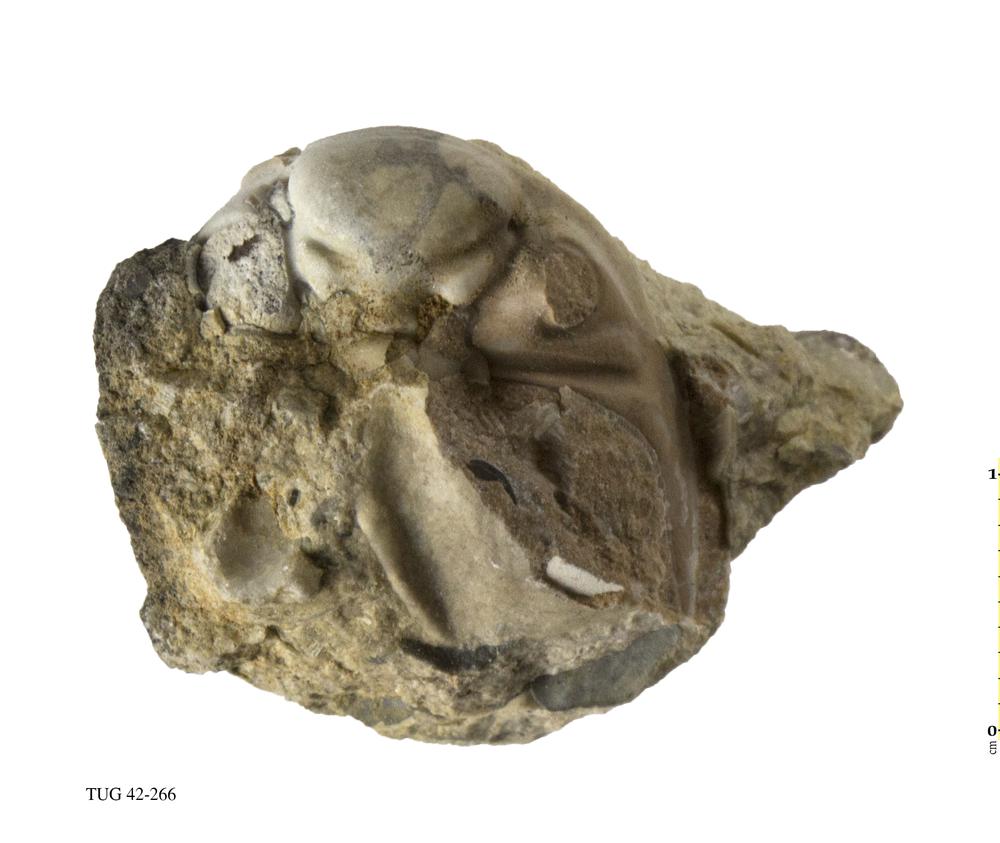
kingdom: Animalia
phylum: Arthropoda
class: Trilobita
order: Phacopida
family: Phacopidae
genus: Phacops
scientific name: Phacops
